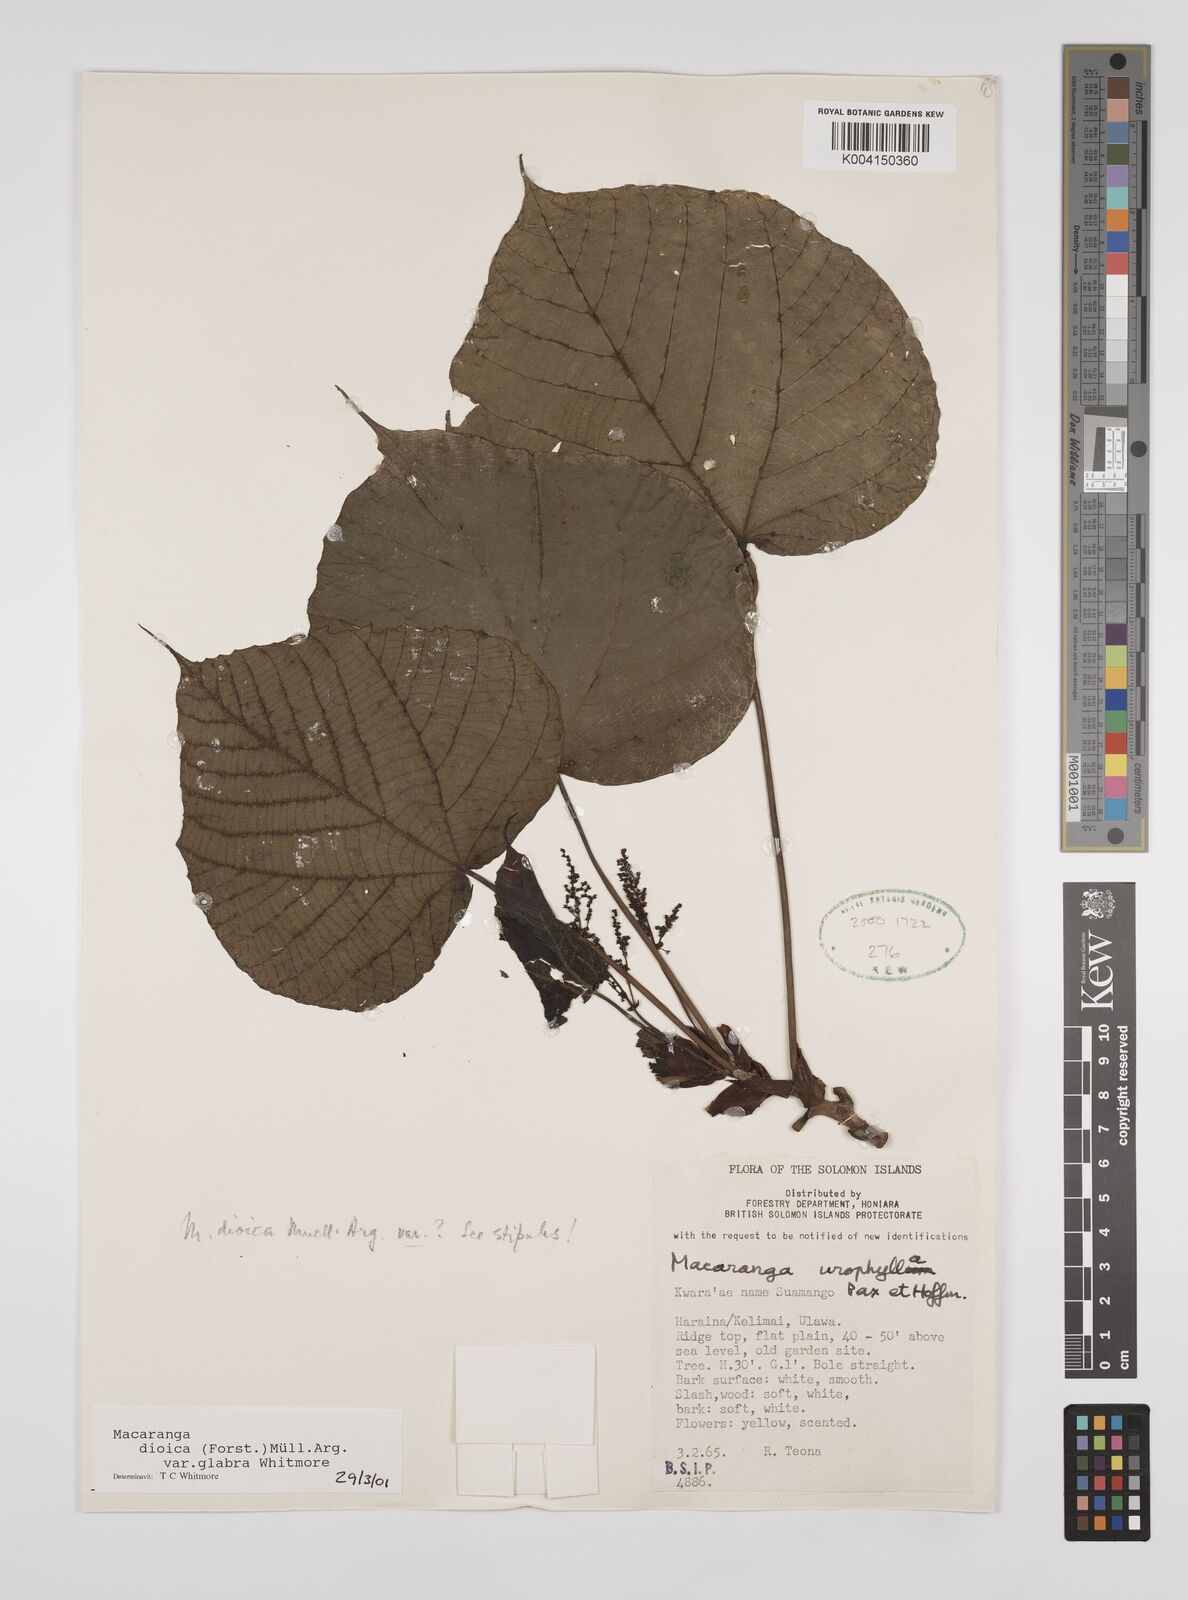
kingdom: Plantae
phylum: Tracheophyta
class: Magnoliopsida
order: Malpighiales
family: Euphorbiaceae
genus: Macaranga
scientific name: Macaranga dioica
